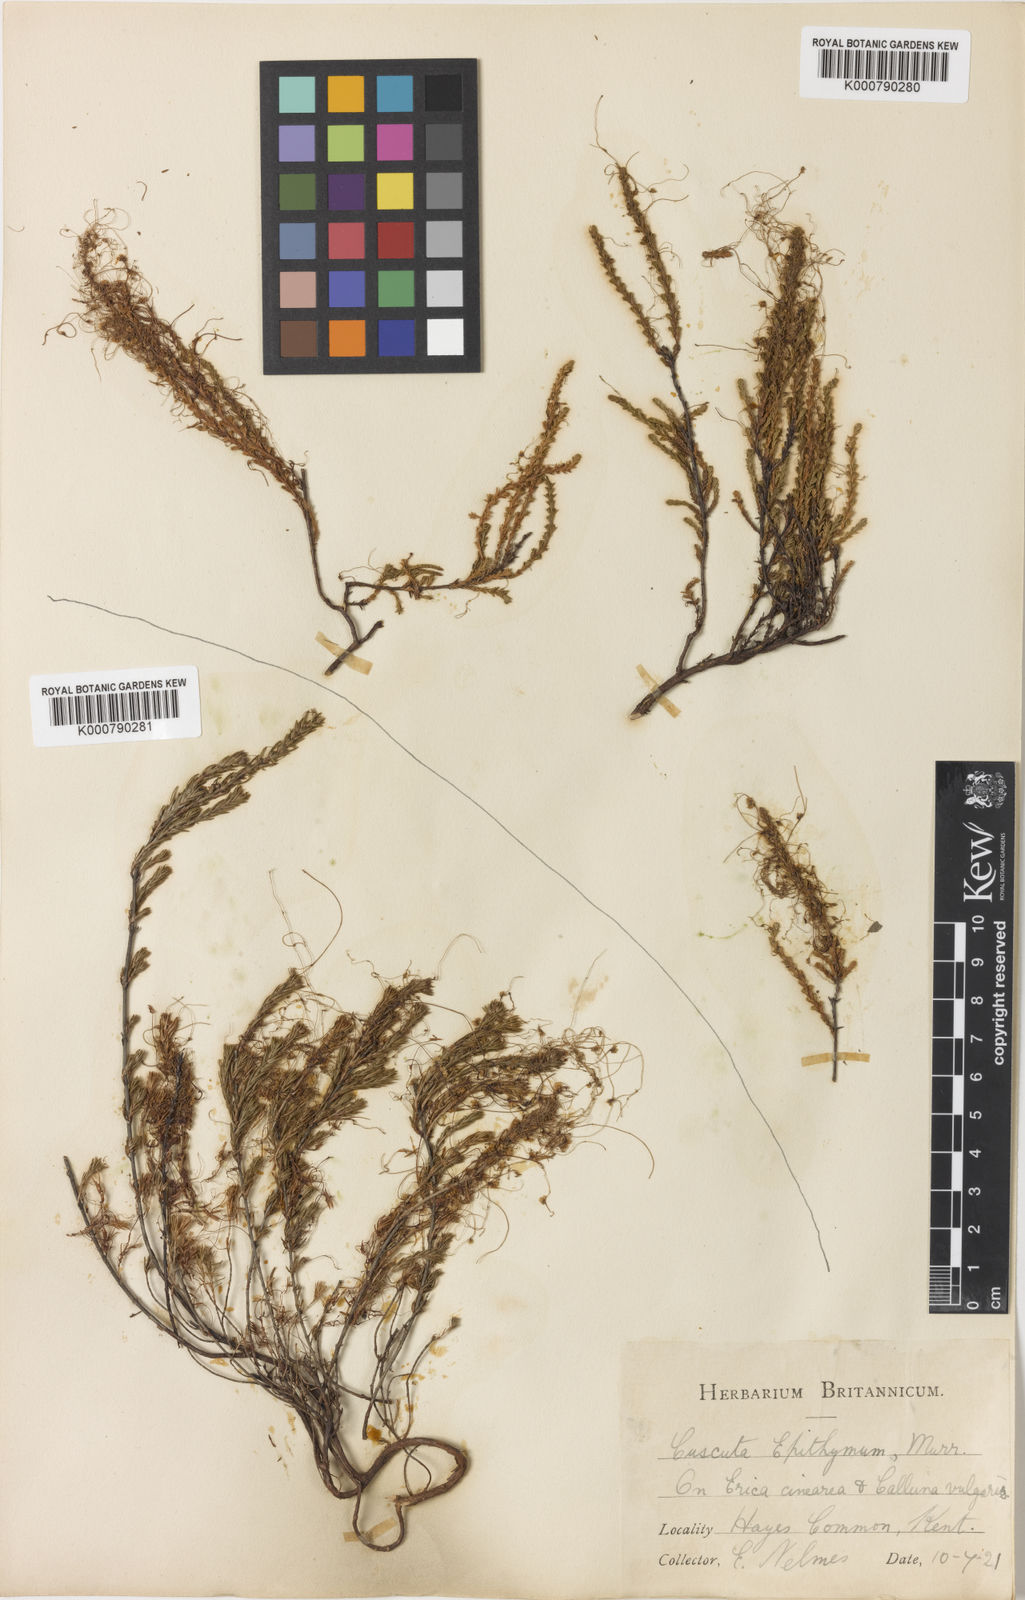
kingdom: Plantae
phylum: Tracheophyta
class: Magnoliopsida
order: Solanales
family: Convolvulaceae
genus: Cuscuta
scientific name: Cuscuta epithymum
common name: Clover dodder
